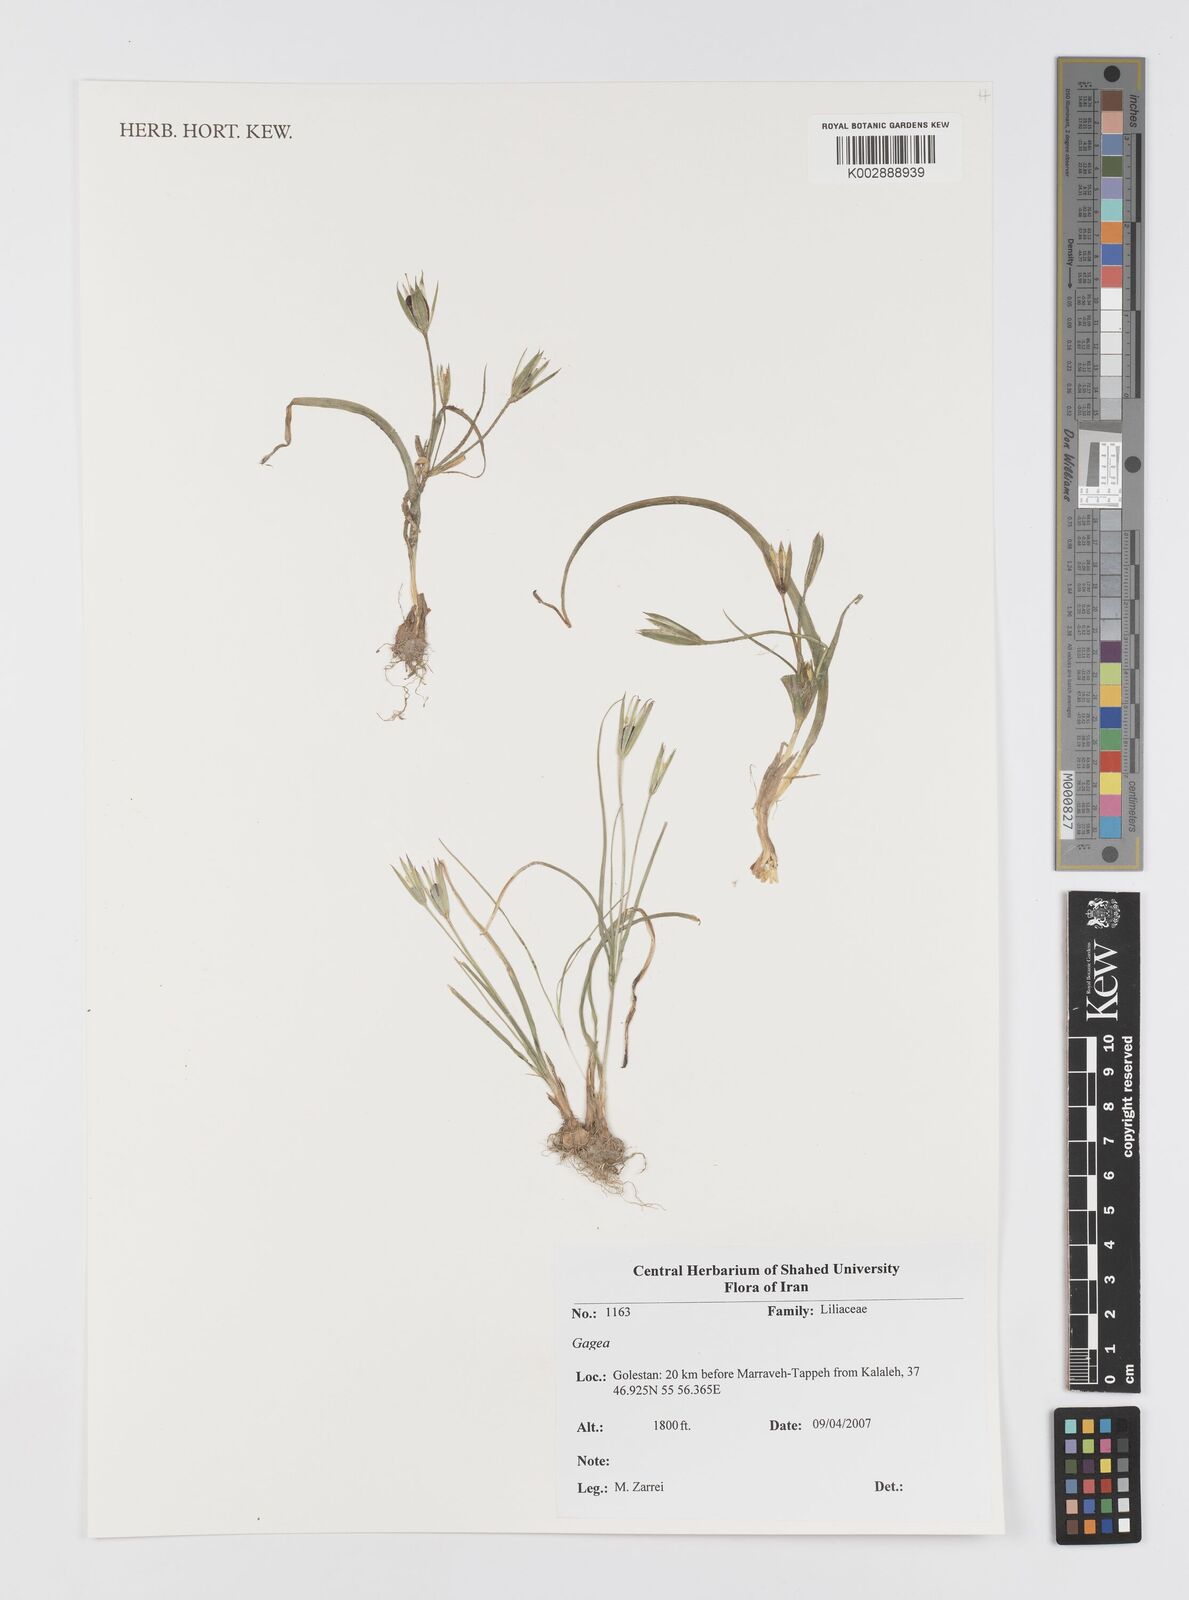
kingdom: Plantae
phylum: Tracheophyta
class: Liliopsida
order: Liliales
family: Liliaceae
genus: Gagea
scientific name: Gagea
